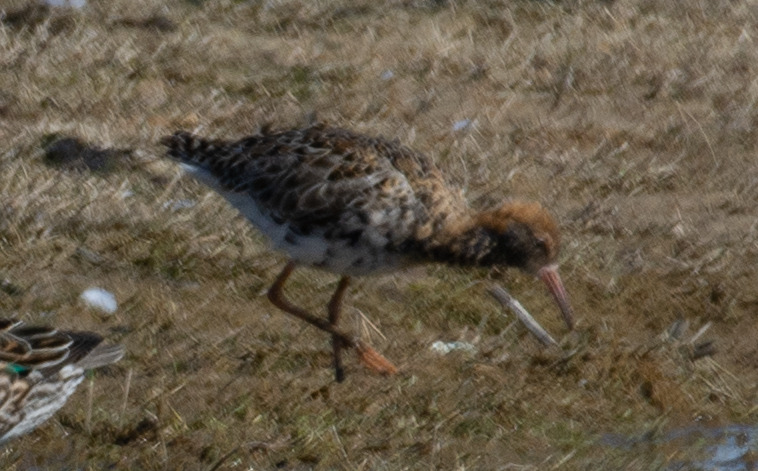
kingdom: Animalia
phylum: Chordata
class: Aves
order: Charadriiformes
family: Scolopacidae
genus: Calidris
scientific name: Calidris pugnax
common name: Brushane
